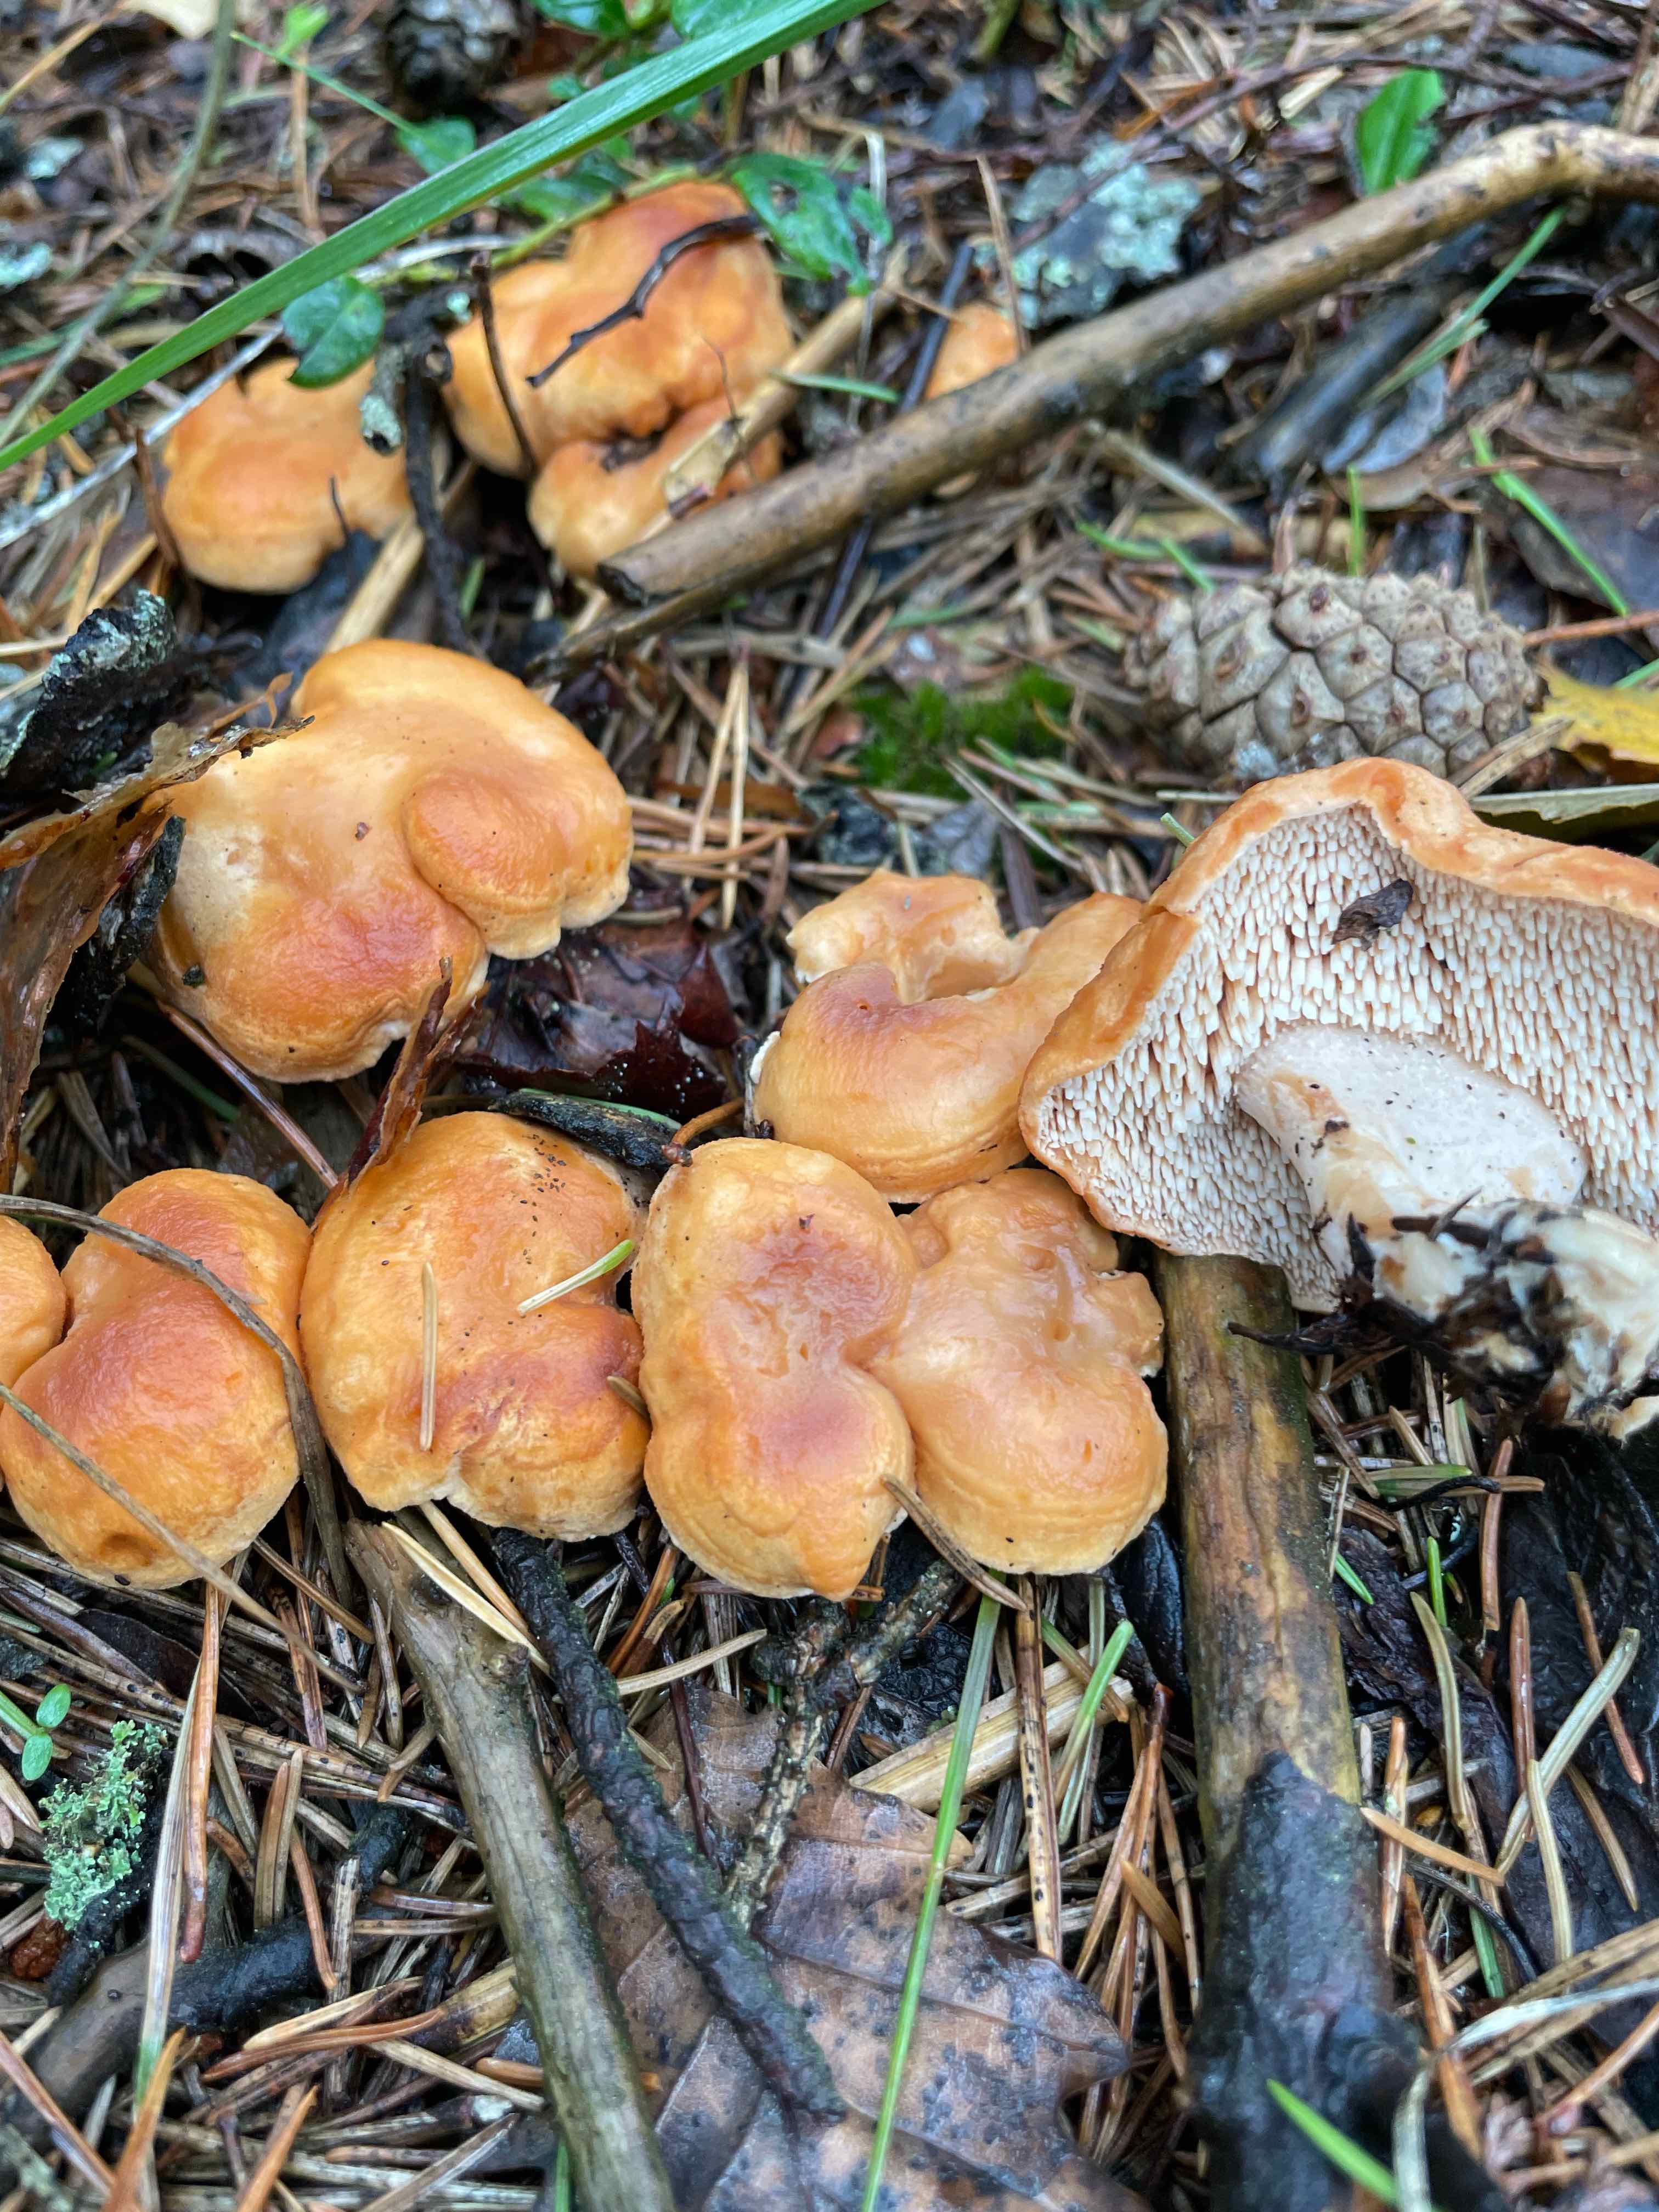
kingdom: Fungi
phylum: Basidiomycota
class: Agaricomycetes
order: Cantharellales
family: Hydnaceae
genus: Hydnum
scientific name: Hydnum rufescens
